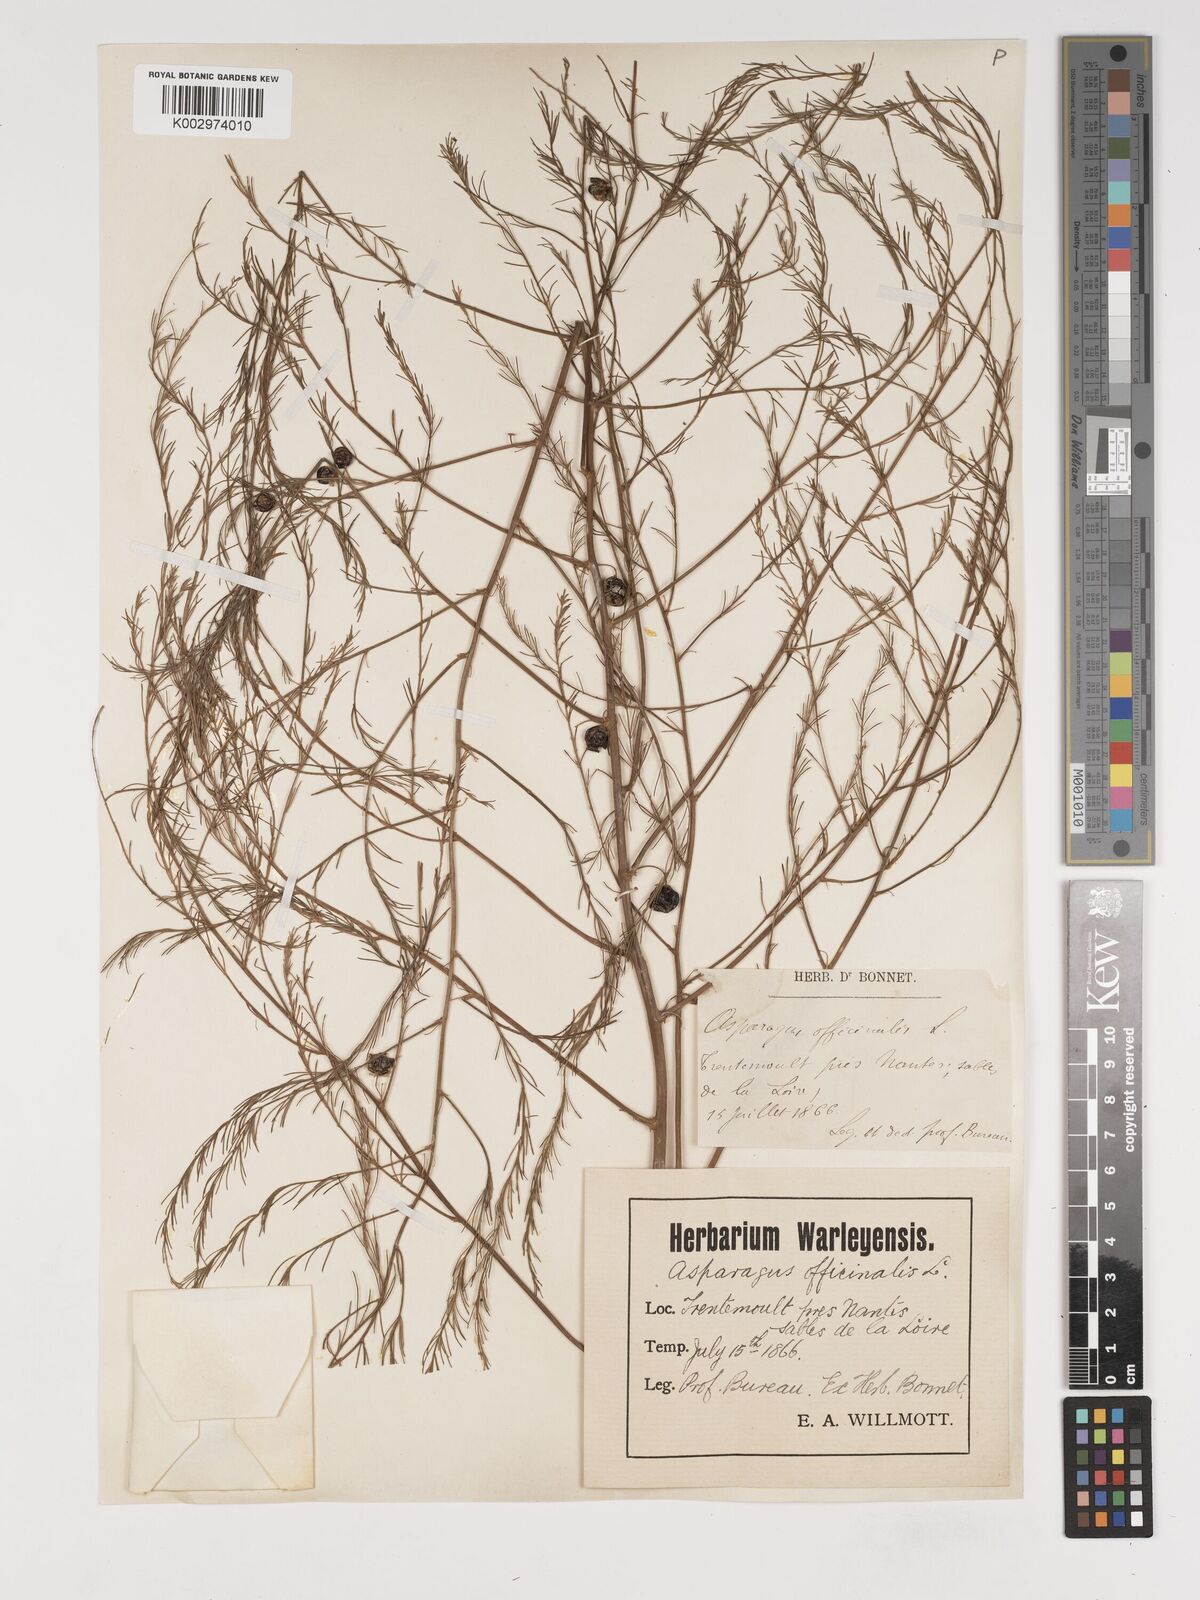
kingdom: Plantae
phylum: Tracheophyta
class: Liliopsida
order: Asparagales
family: Asparagaceae
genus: Asparagus
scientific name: Asparagus officinalis
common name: Garden asparagus
